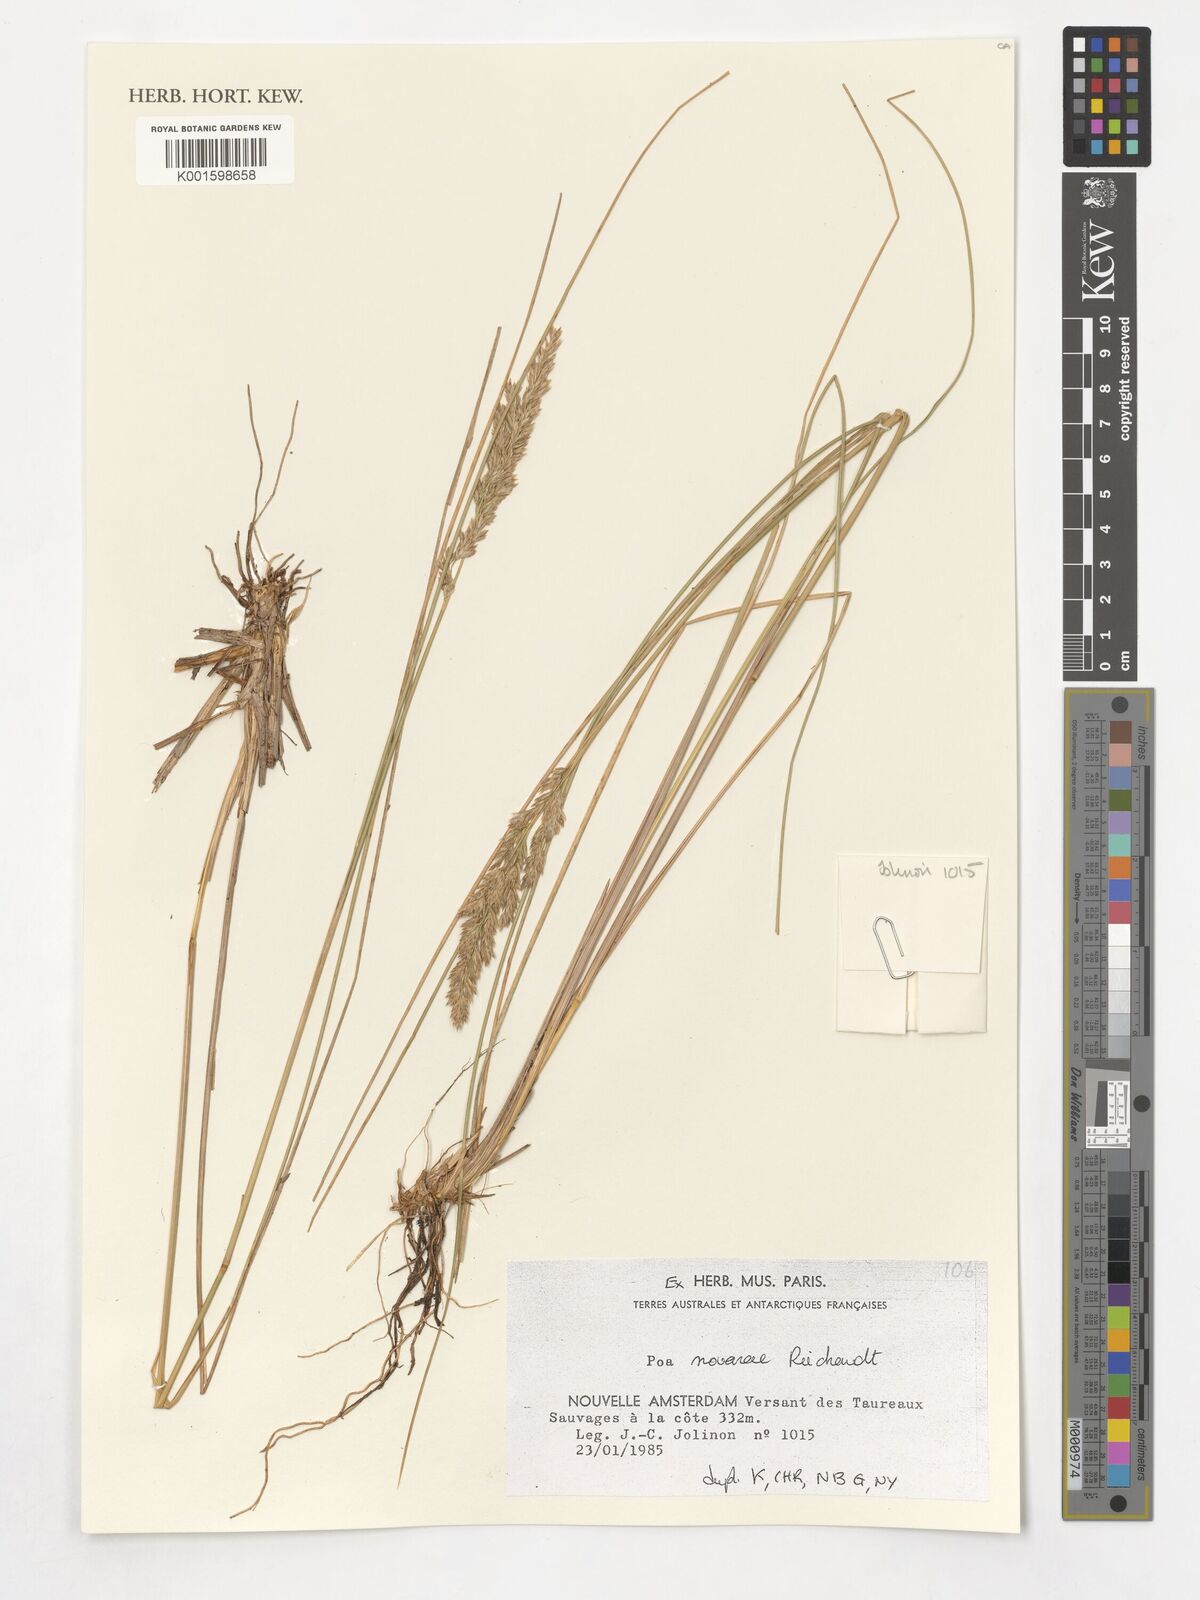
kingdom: Plantae
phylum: Tracheophyta
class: Liliopsida
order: Poales
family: Poaceae
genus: Poa
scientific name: Poa novarae
